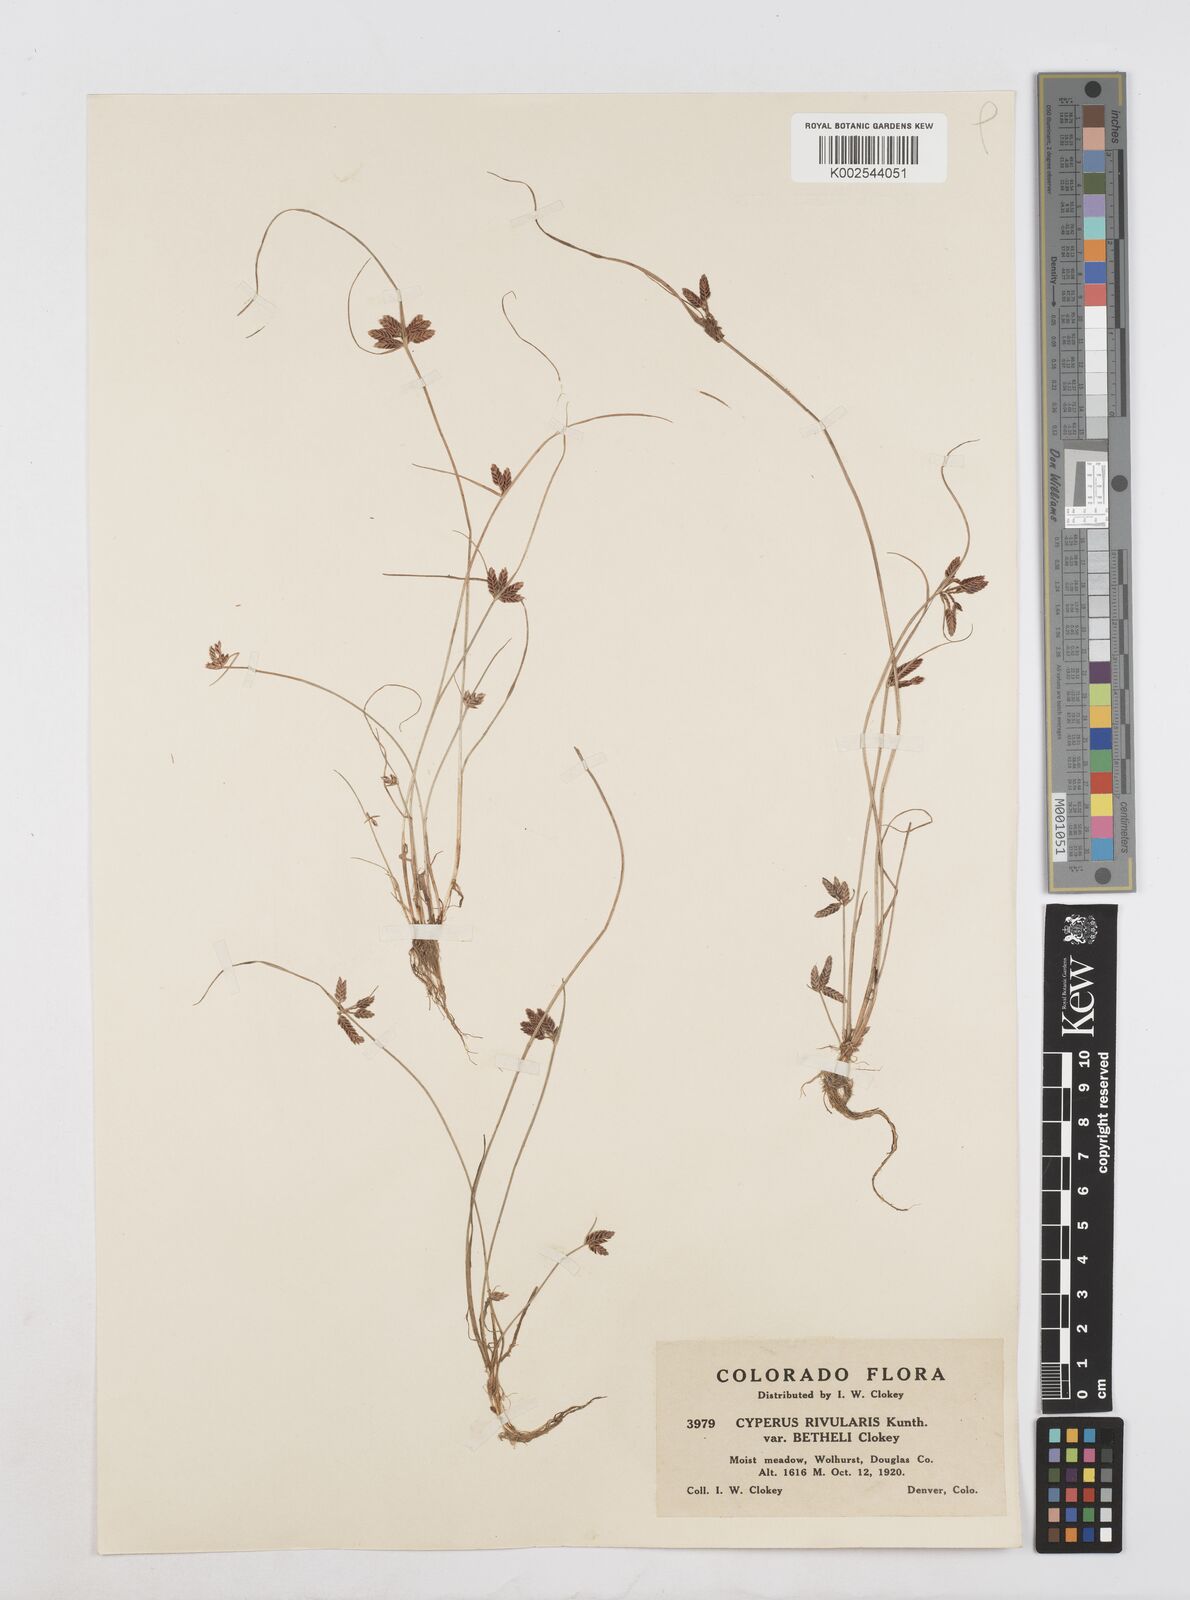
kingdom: Plantae
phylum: Tracheophyta
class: Liliopsida
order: Poales
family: Cyperaceae
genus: Cyperus
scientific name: Cyperus bipartitus
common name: Brook flatsedge
